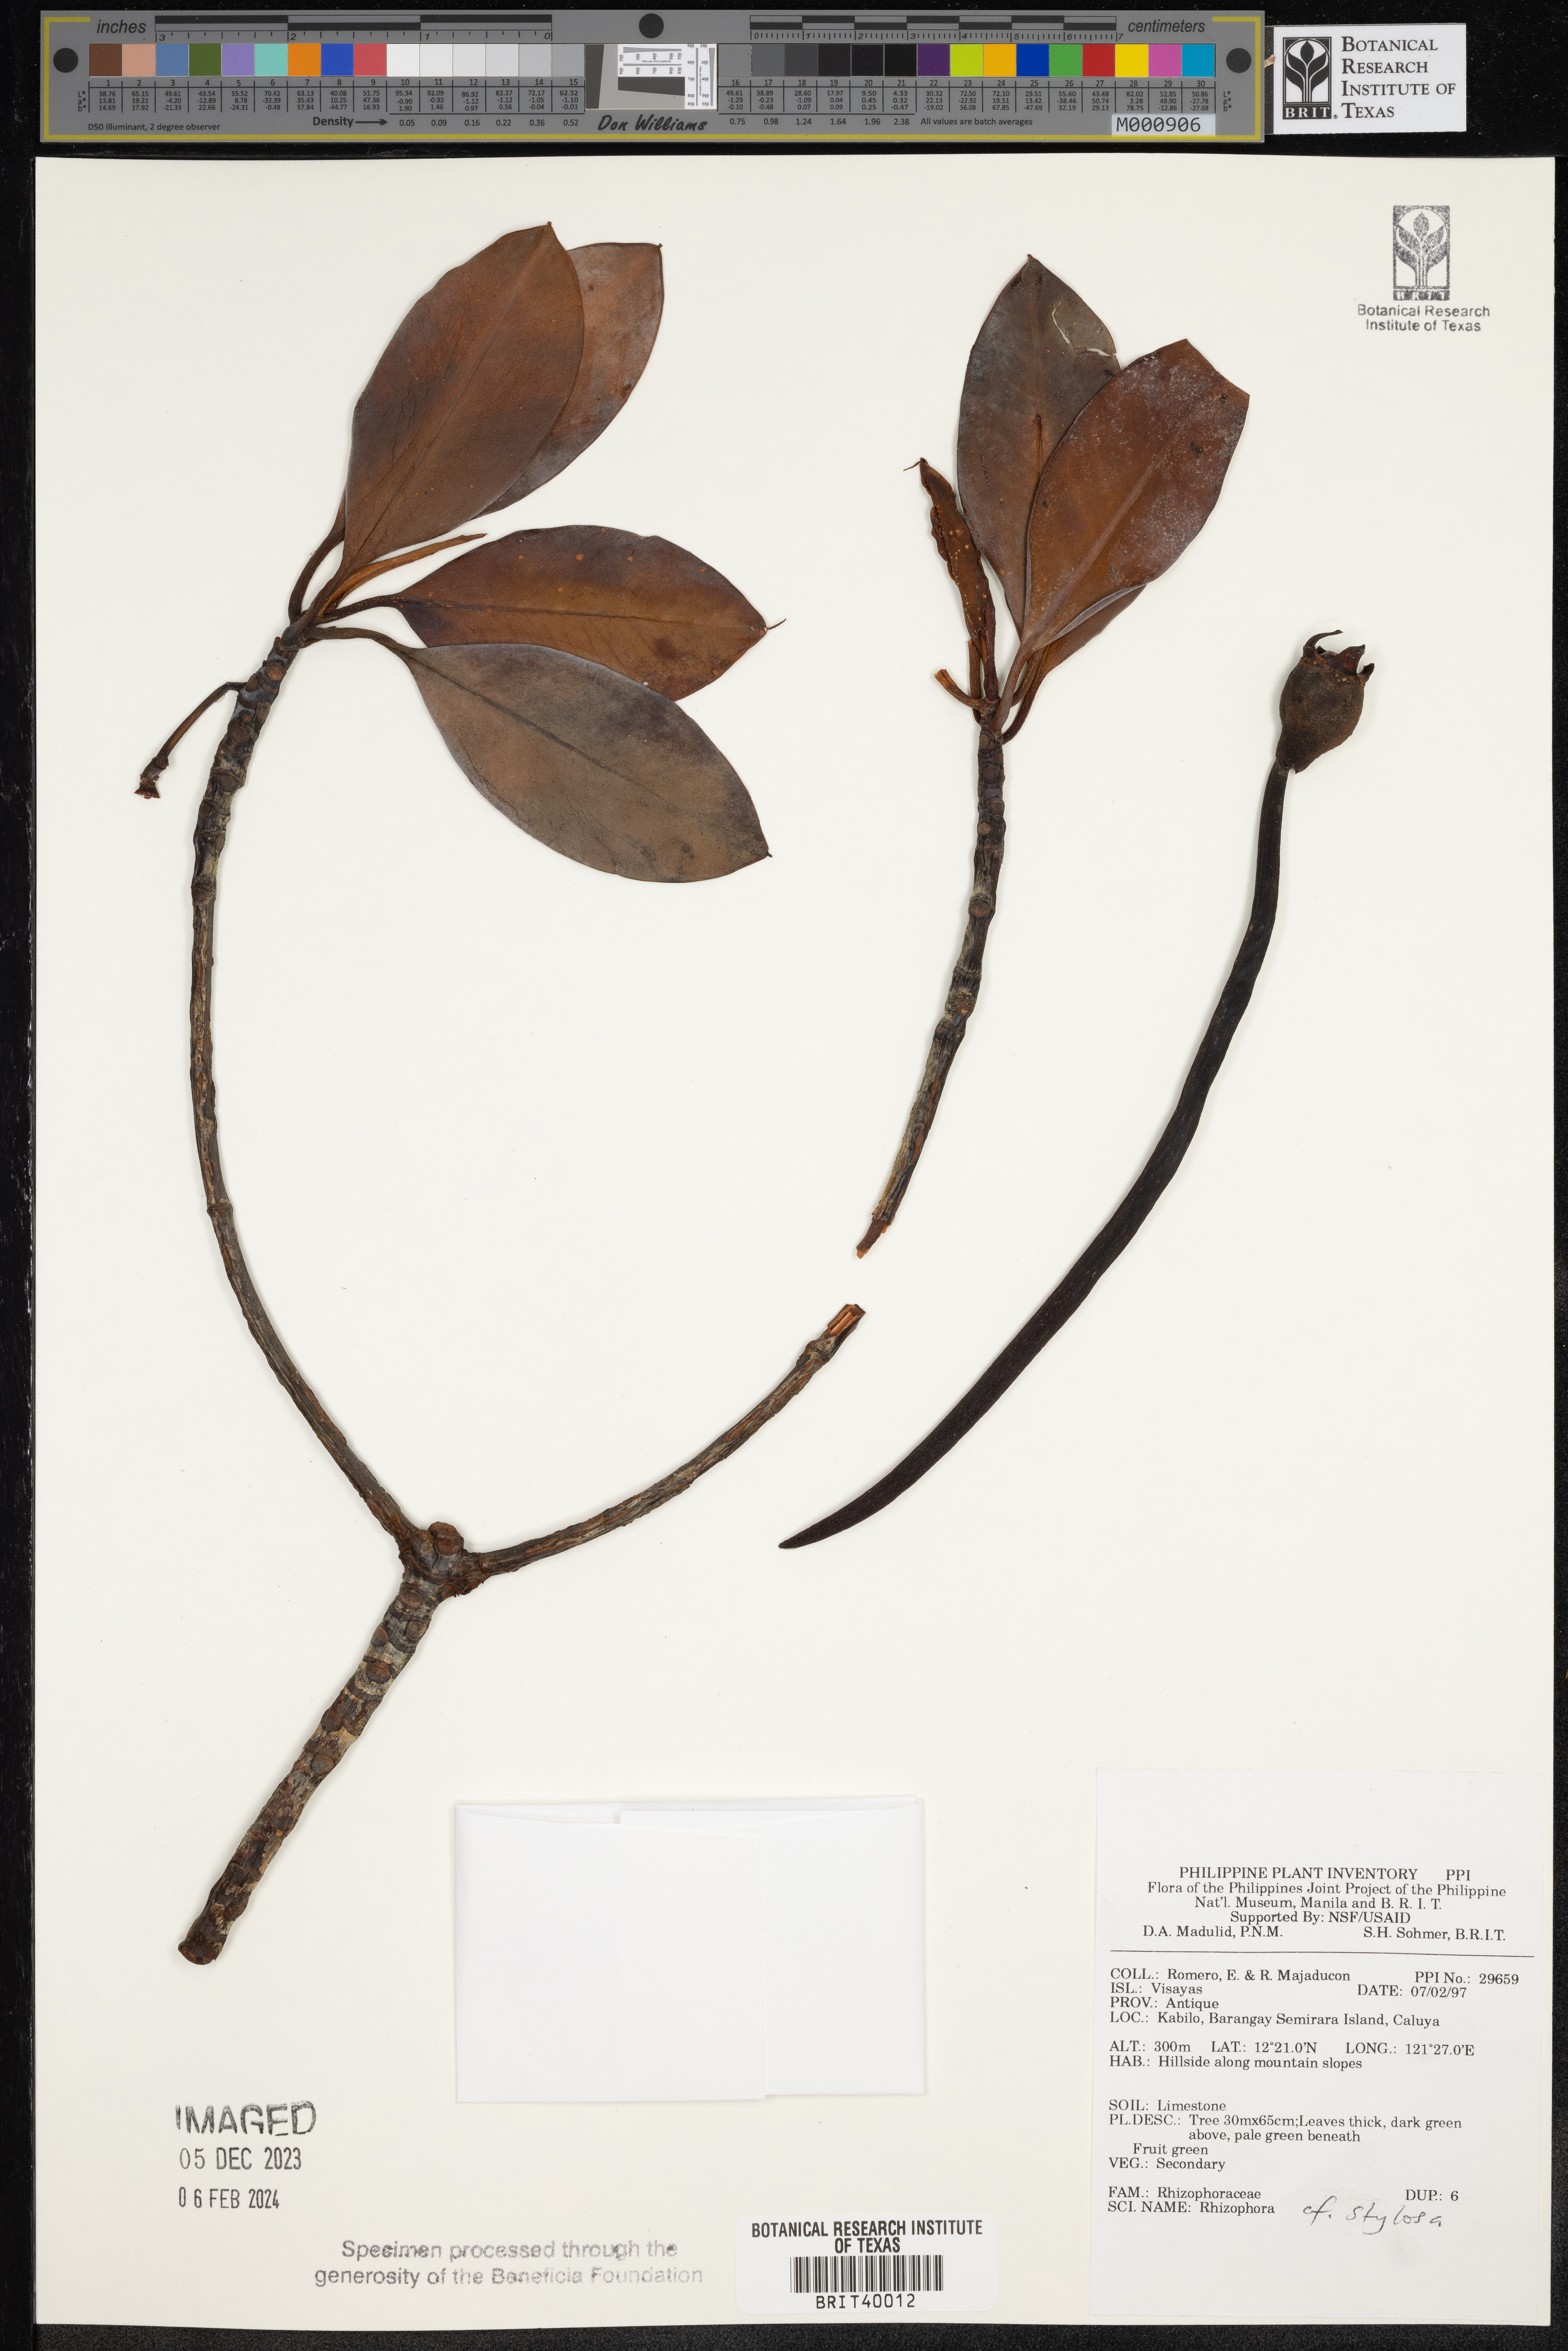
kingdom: Plantae
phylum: Tracheophyta
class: Magnoliopsida
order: Malpighiales
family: Rhizophoraceae
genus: Rhizophora
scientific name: Rhizophora stylosa
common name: Red mangrove
